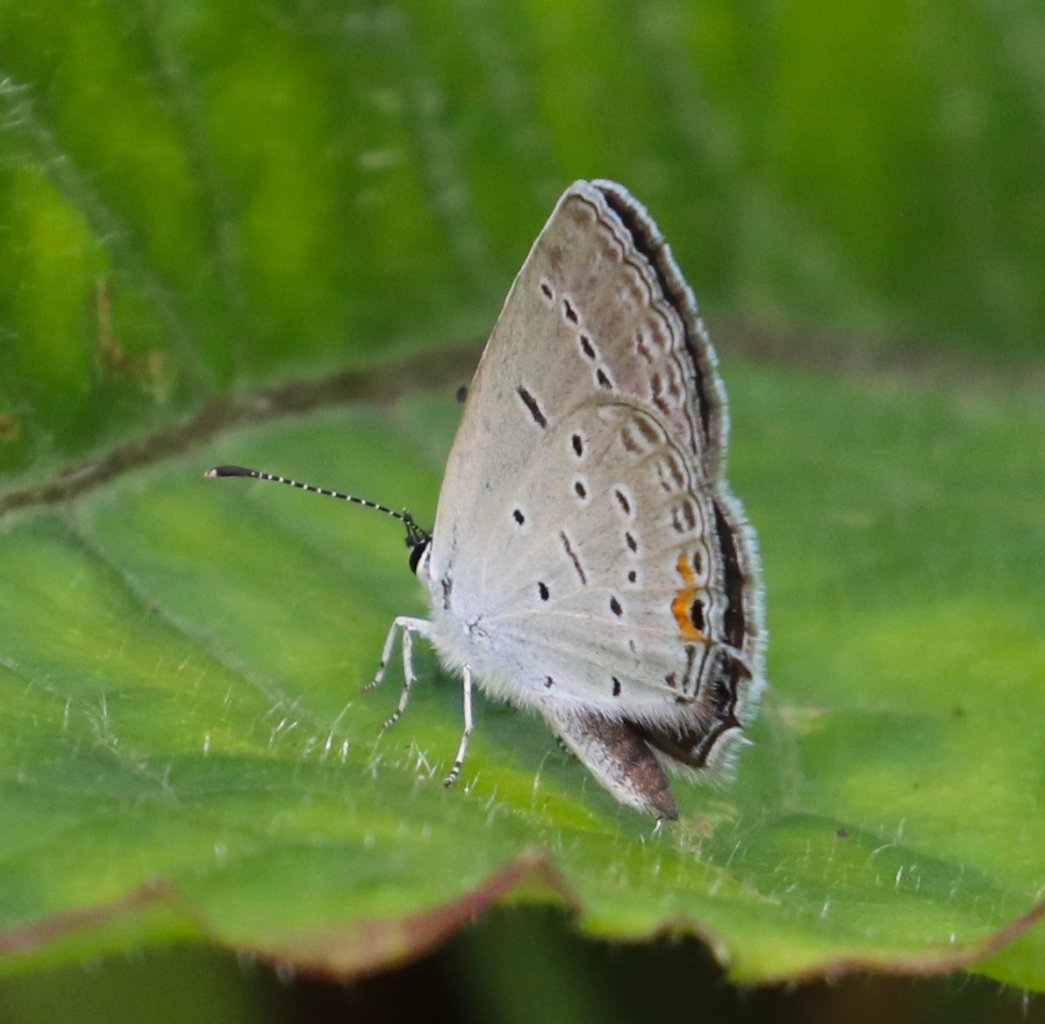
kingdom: Animalia
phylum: Arthropoda
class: Insecta
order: Lepidoptera
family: Lycaenidae
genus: Elkalyce
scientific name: Elkalyce comyntas
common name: Eastern Tailed-Blue
